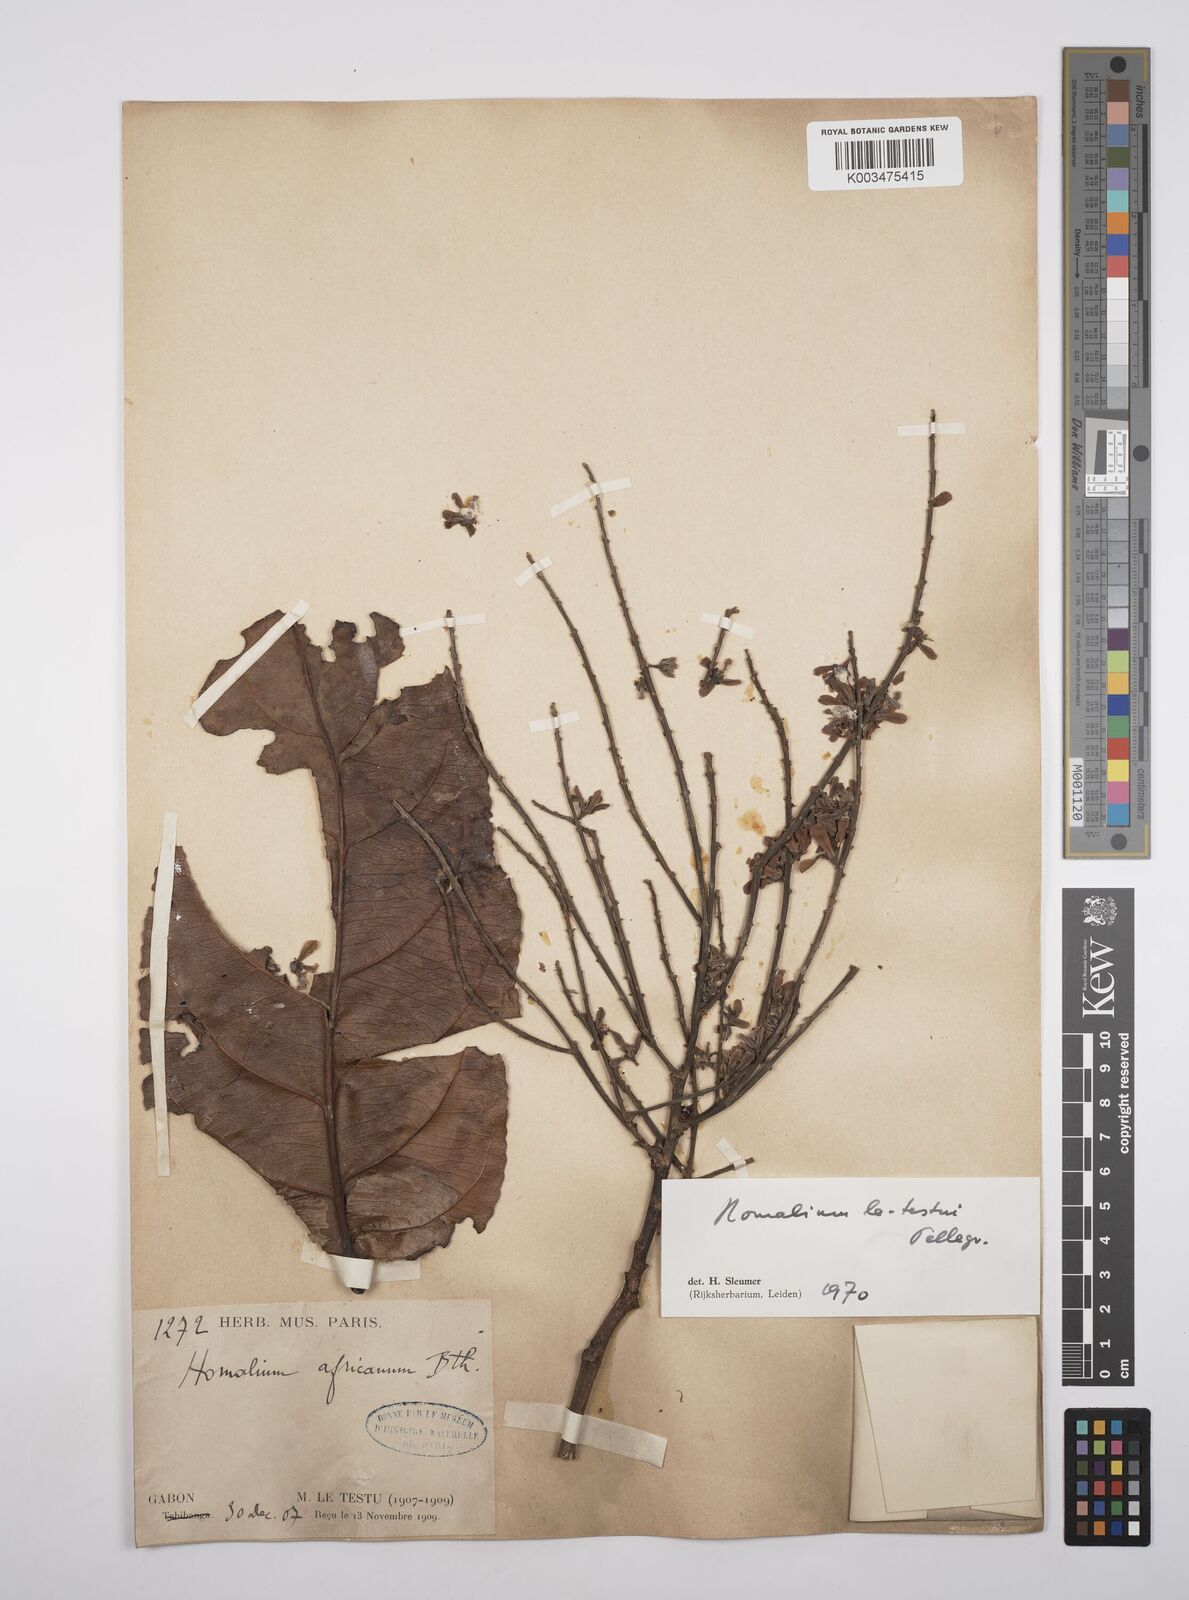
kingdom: Plantae
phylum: Tracheophyta
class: Magnoliopsida
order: Malpighiales
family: Salicaceae
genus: Homalium
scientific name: Homalium letestui
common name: African homalium
